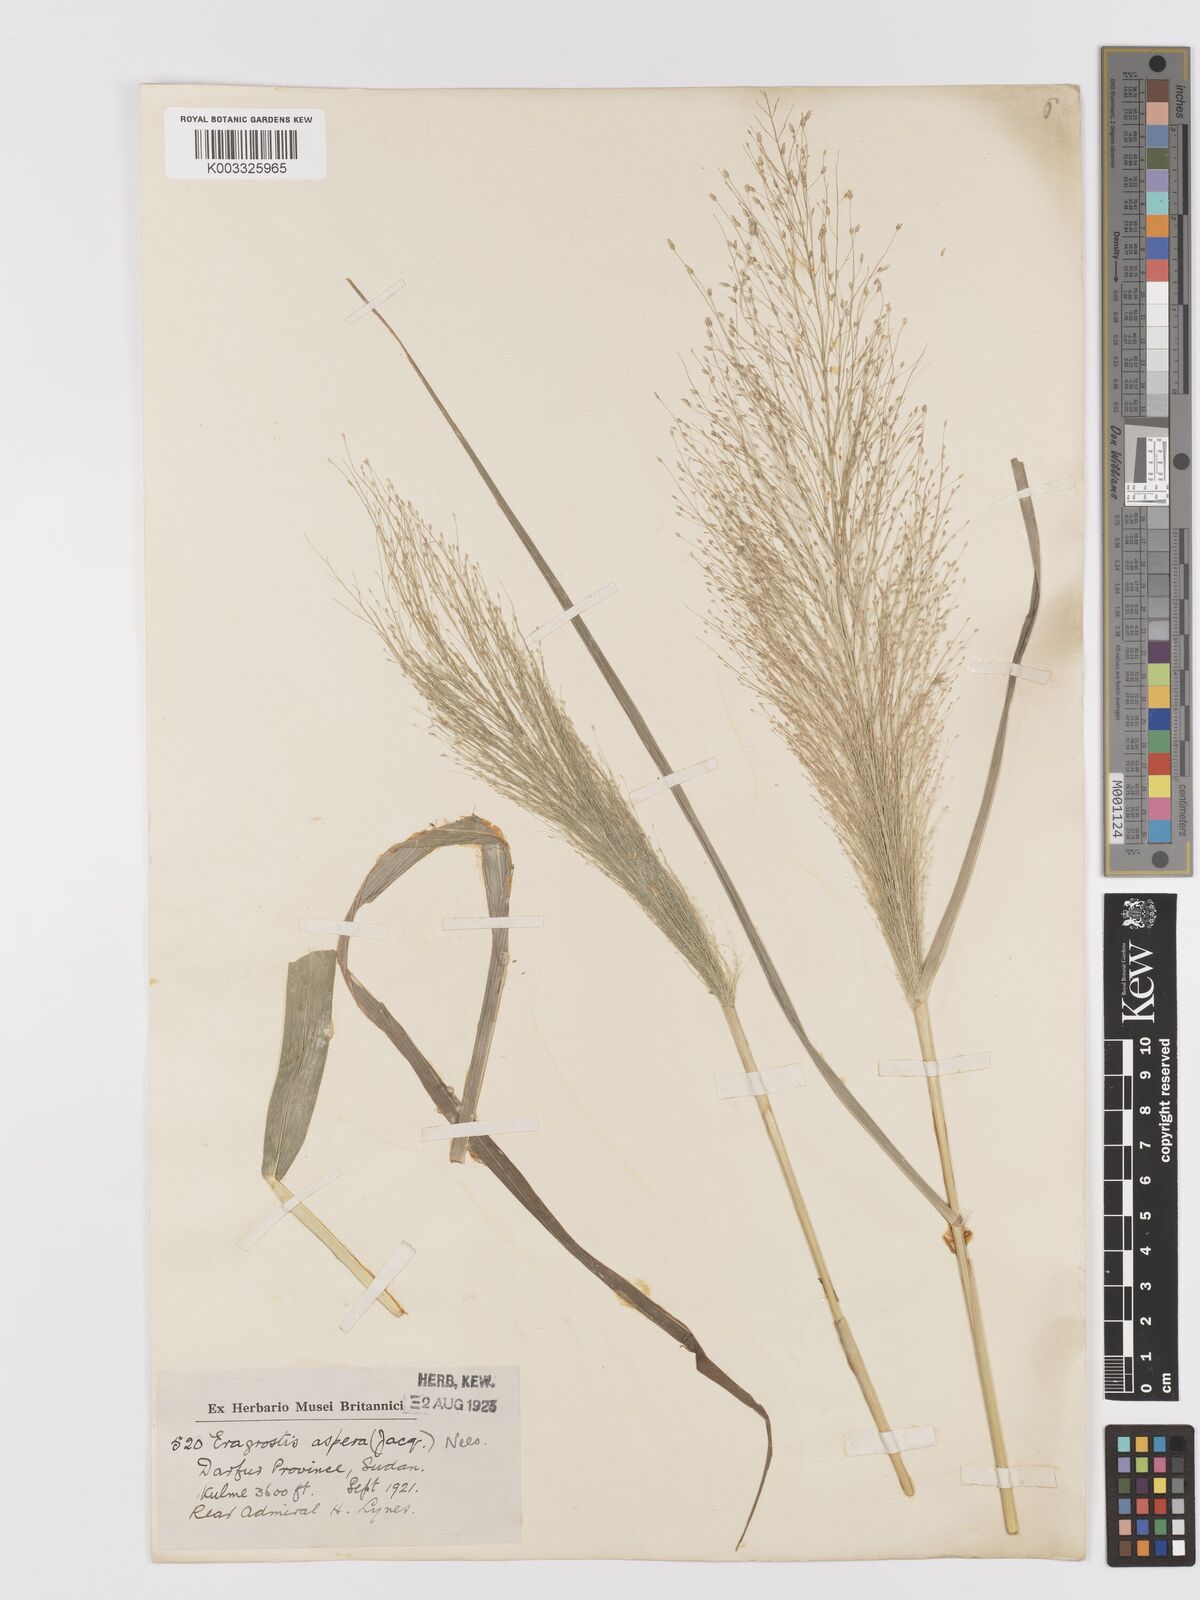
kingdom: Plantae
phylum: Tracheophyta
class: Liliopsida
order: Poales
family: Poaceae
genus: Eragrostis
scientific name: Eragrostis aspera
